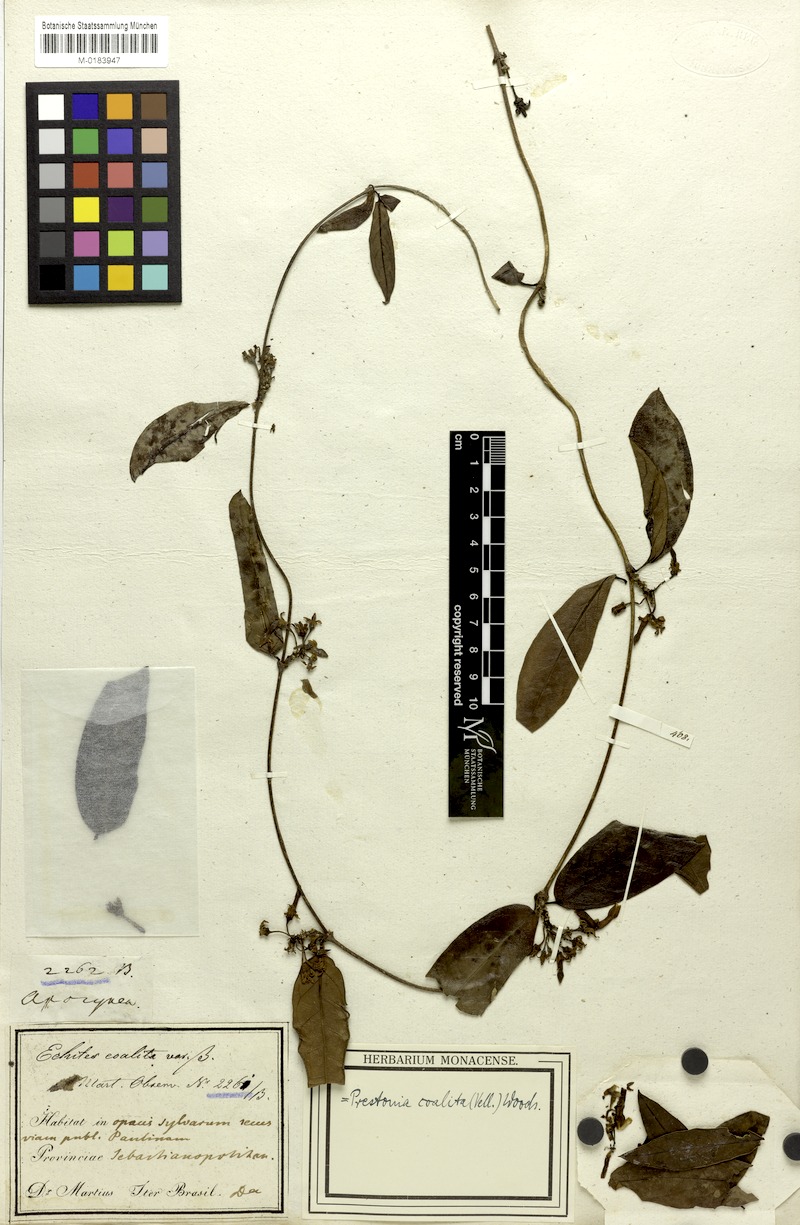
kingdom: Plantae
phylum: Tracheophyta
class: Magnoliopsida
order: Gentianales
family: Apocynaceae
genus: Prestonia
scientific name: Prestonia coalita
